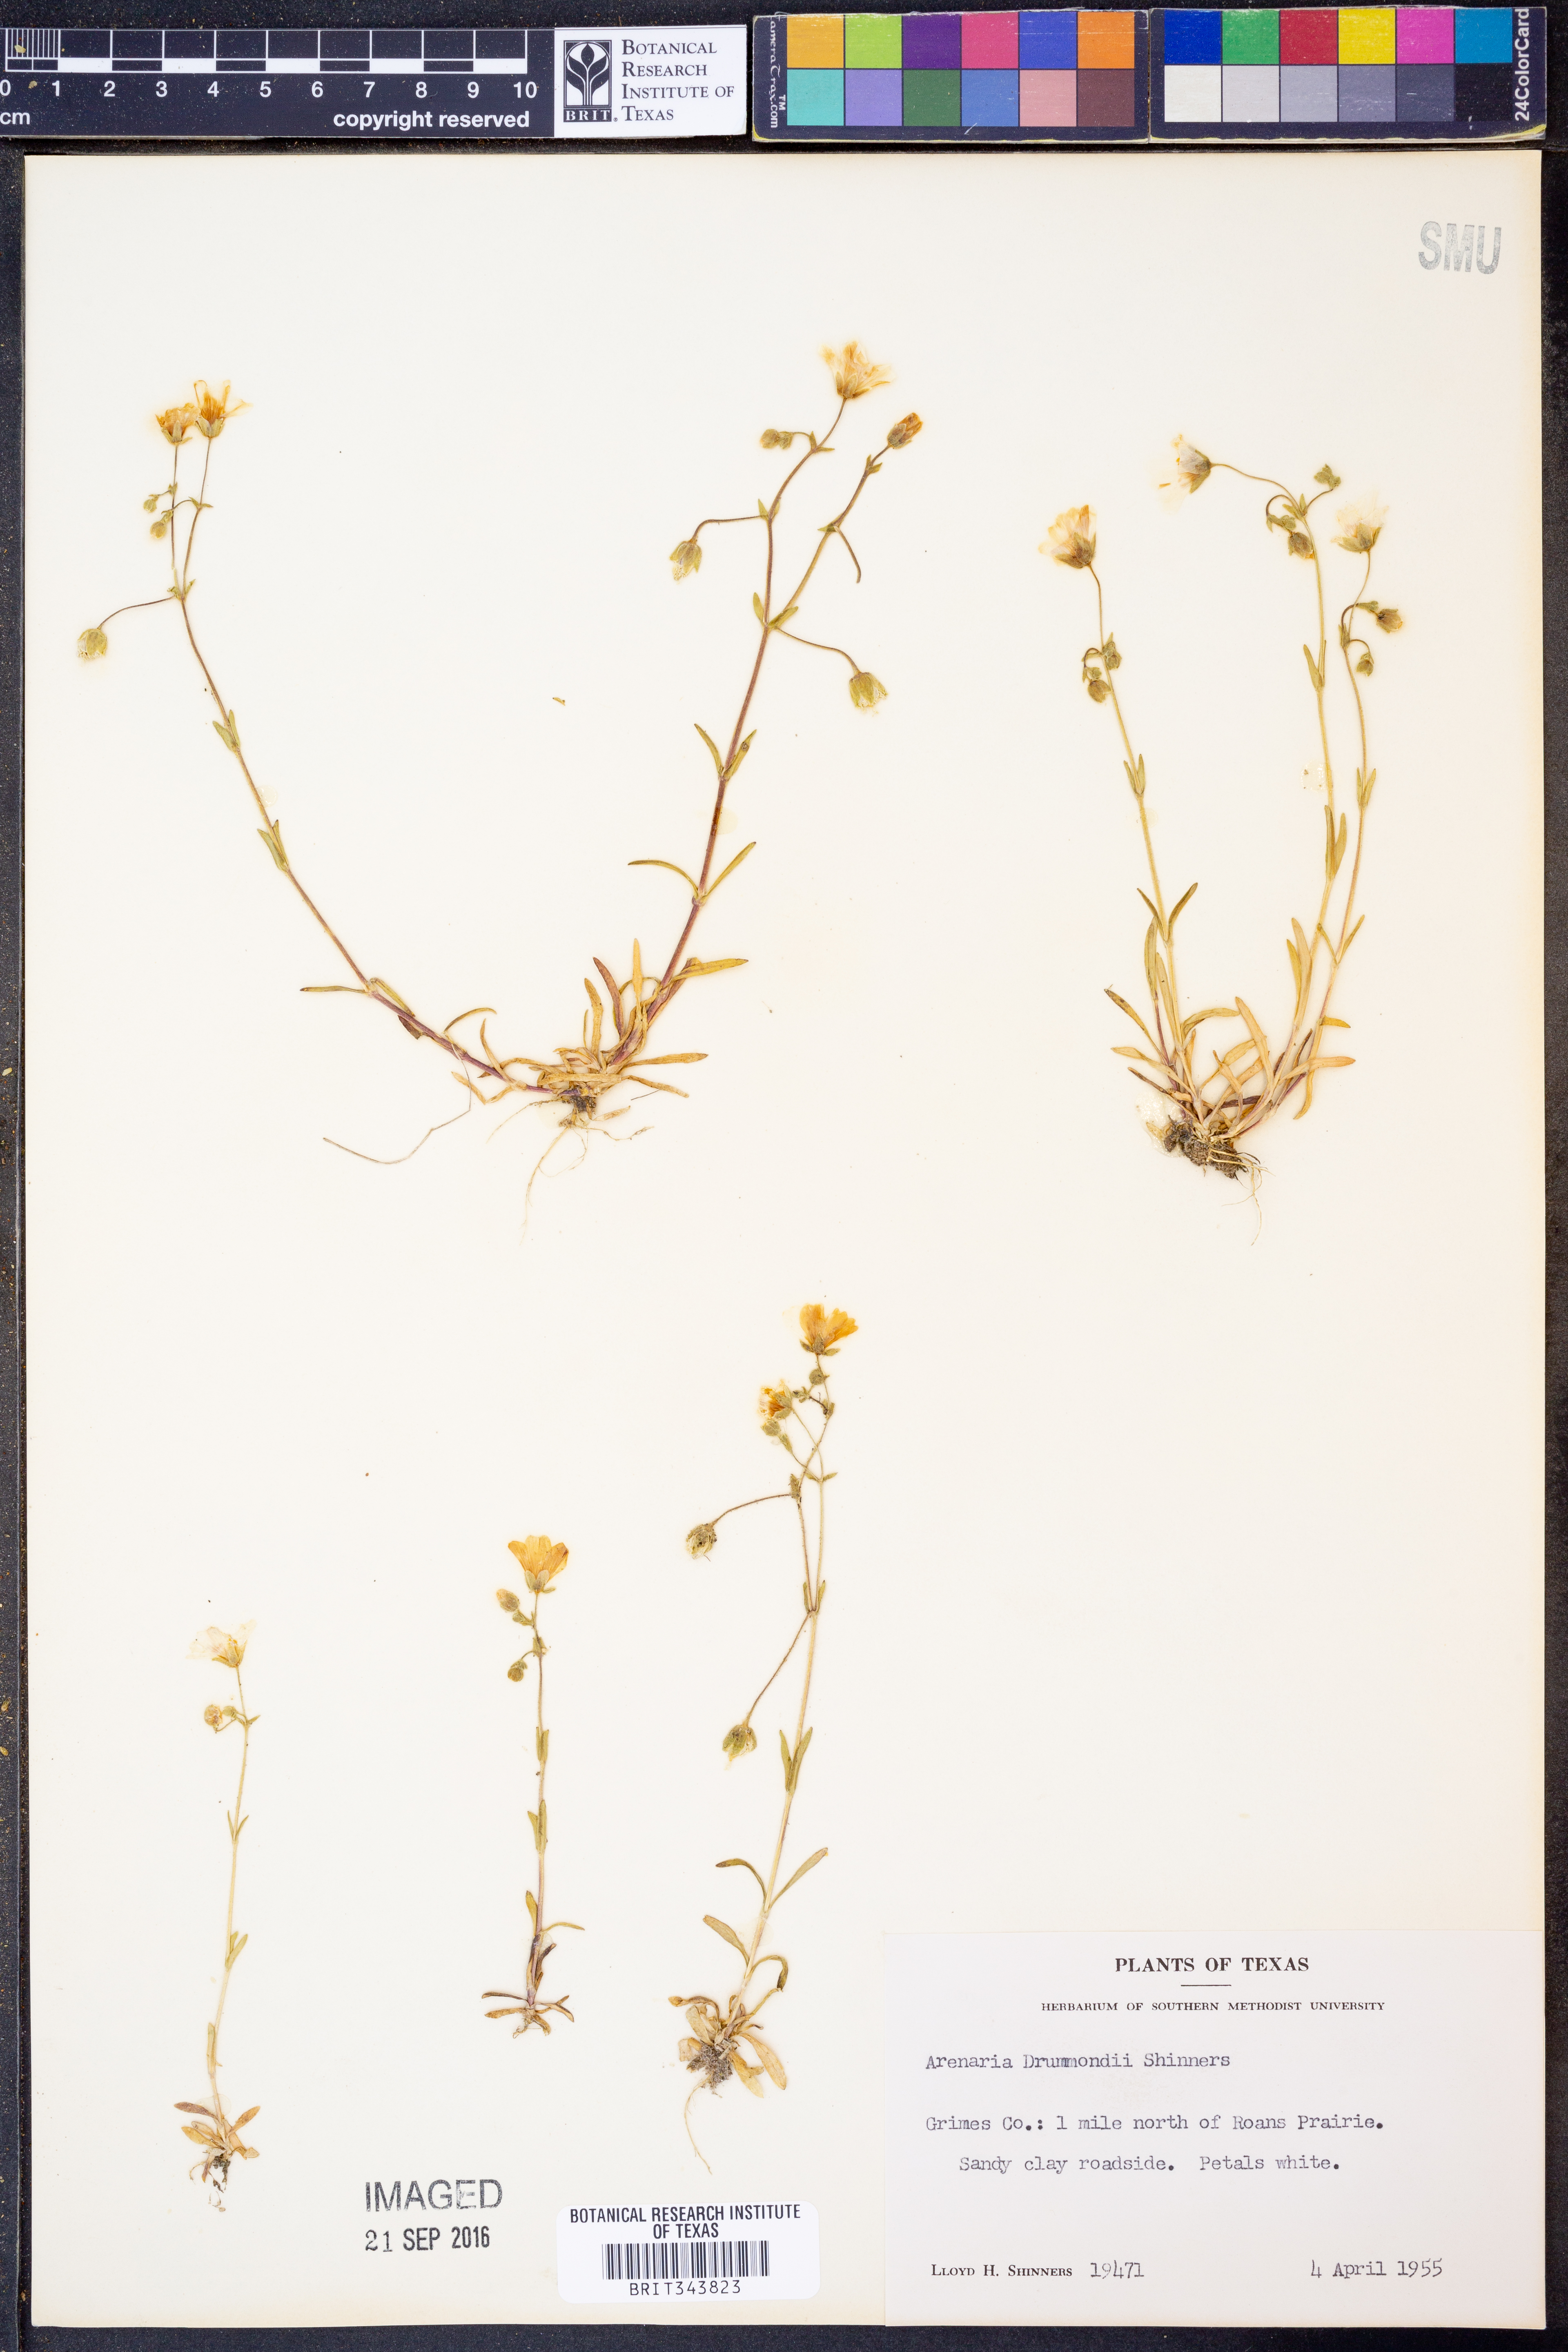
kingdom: Plantae
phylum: Tracheophyta
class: Magnoliopsida
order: Caryophyllales
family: Caryophyllaceae
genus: Geocarpon
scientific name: Geocarpon nuttallii
